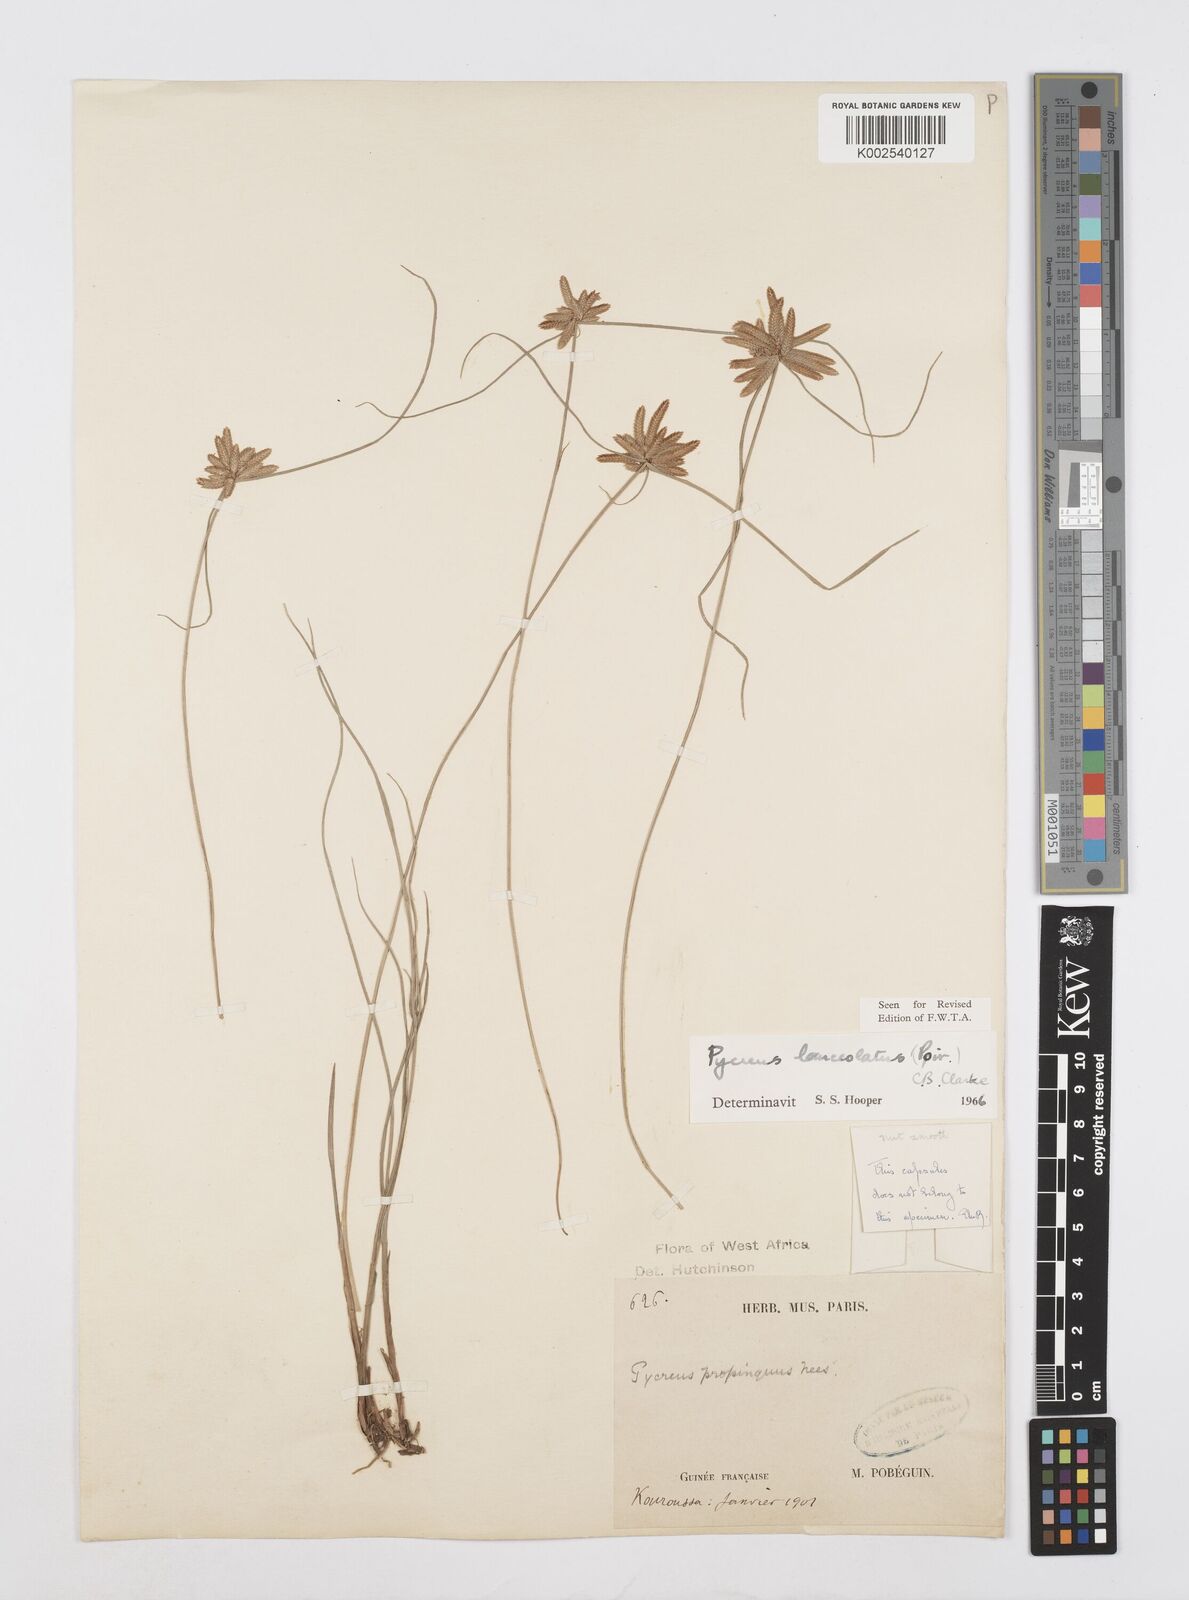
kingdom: Plantae
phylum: Tracheophyta
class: Liliopsida
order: Poales
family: Cyperaceae
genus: Cyperus
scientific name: Cyperus
